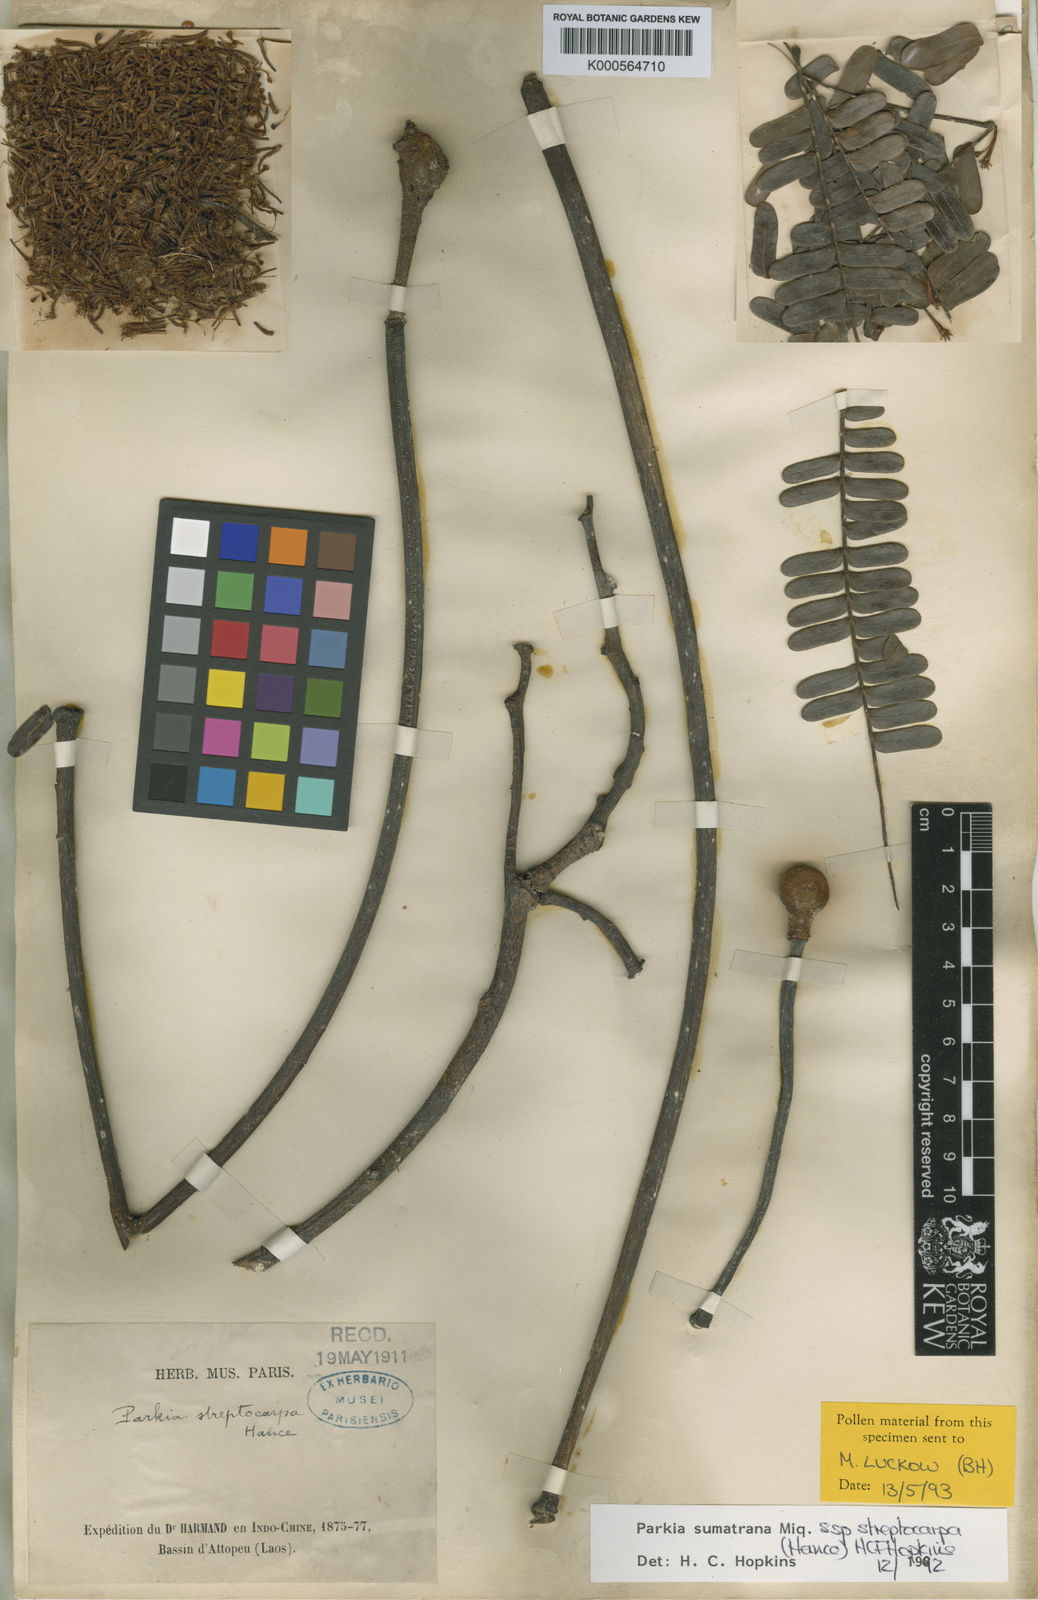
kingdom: Plantae
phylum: Tracheophyta
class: Magnoliopsida
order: Fabales
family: Fabaceae
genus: Parkia
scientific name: Parkia sumatrana
